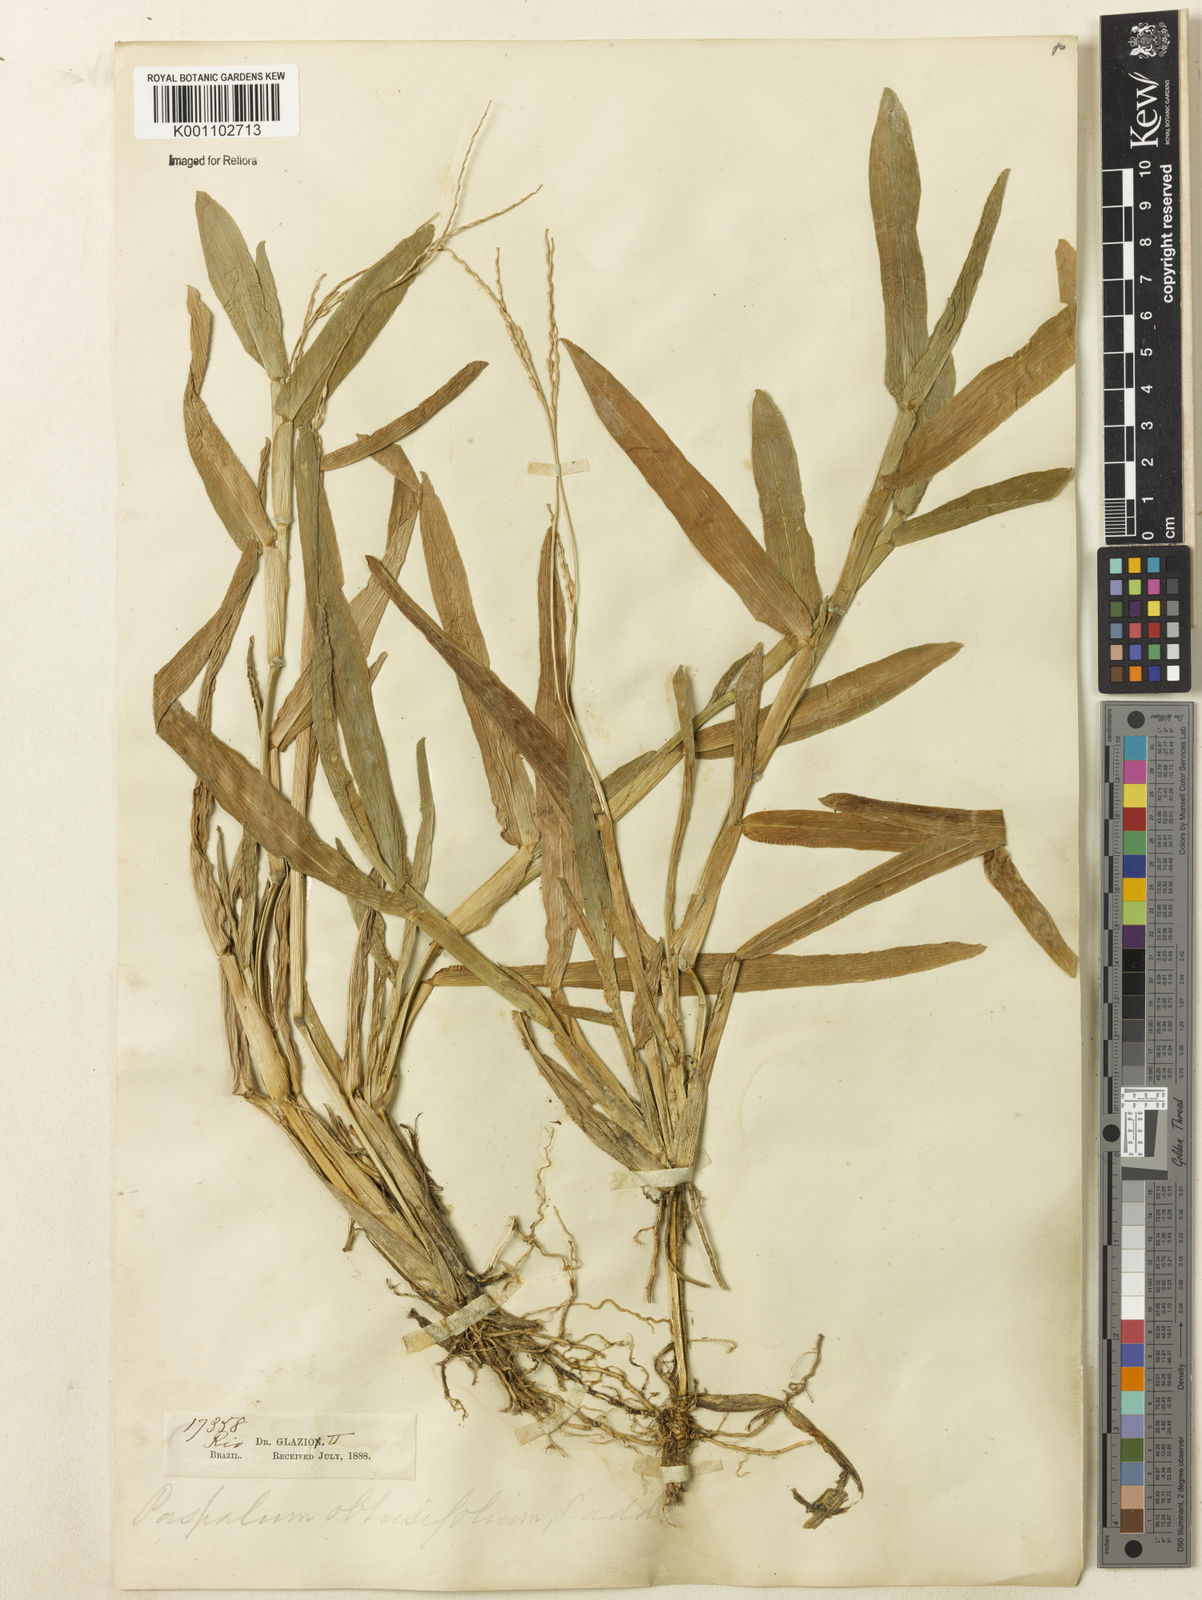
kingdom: Plantae
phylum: Tracheophyta
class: Liliopsida
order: Poales
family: Poaceae
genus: Axonopus
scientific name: Axonopus furcatus
